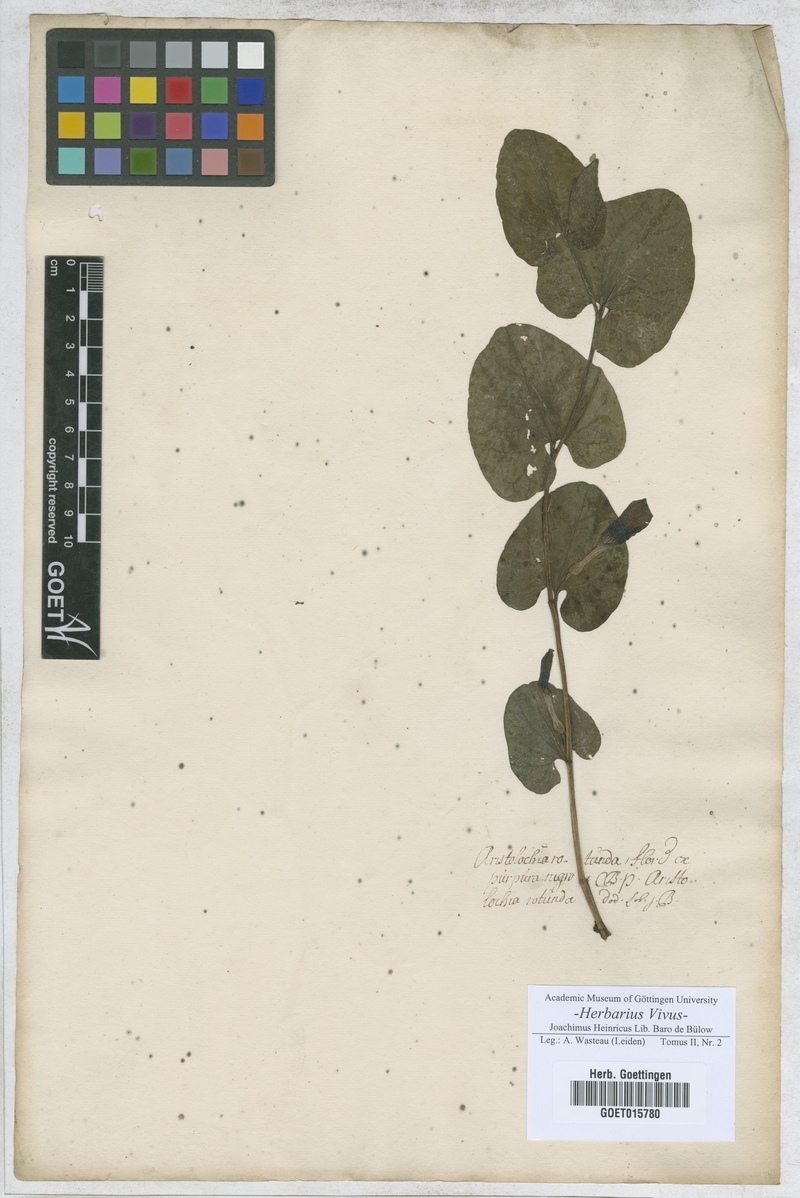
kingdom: Plantae
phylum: Tracheophyta
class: Magnoliopsida
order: Piperales
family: Aristolochiaceae
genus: Aristolochia
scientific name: Aristolochia rotunda
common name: Smearwort
